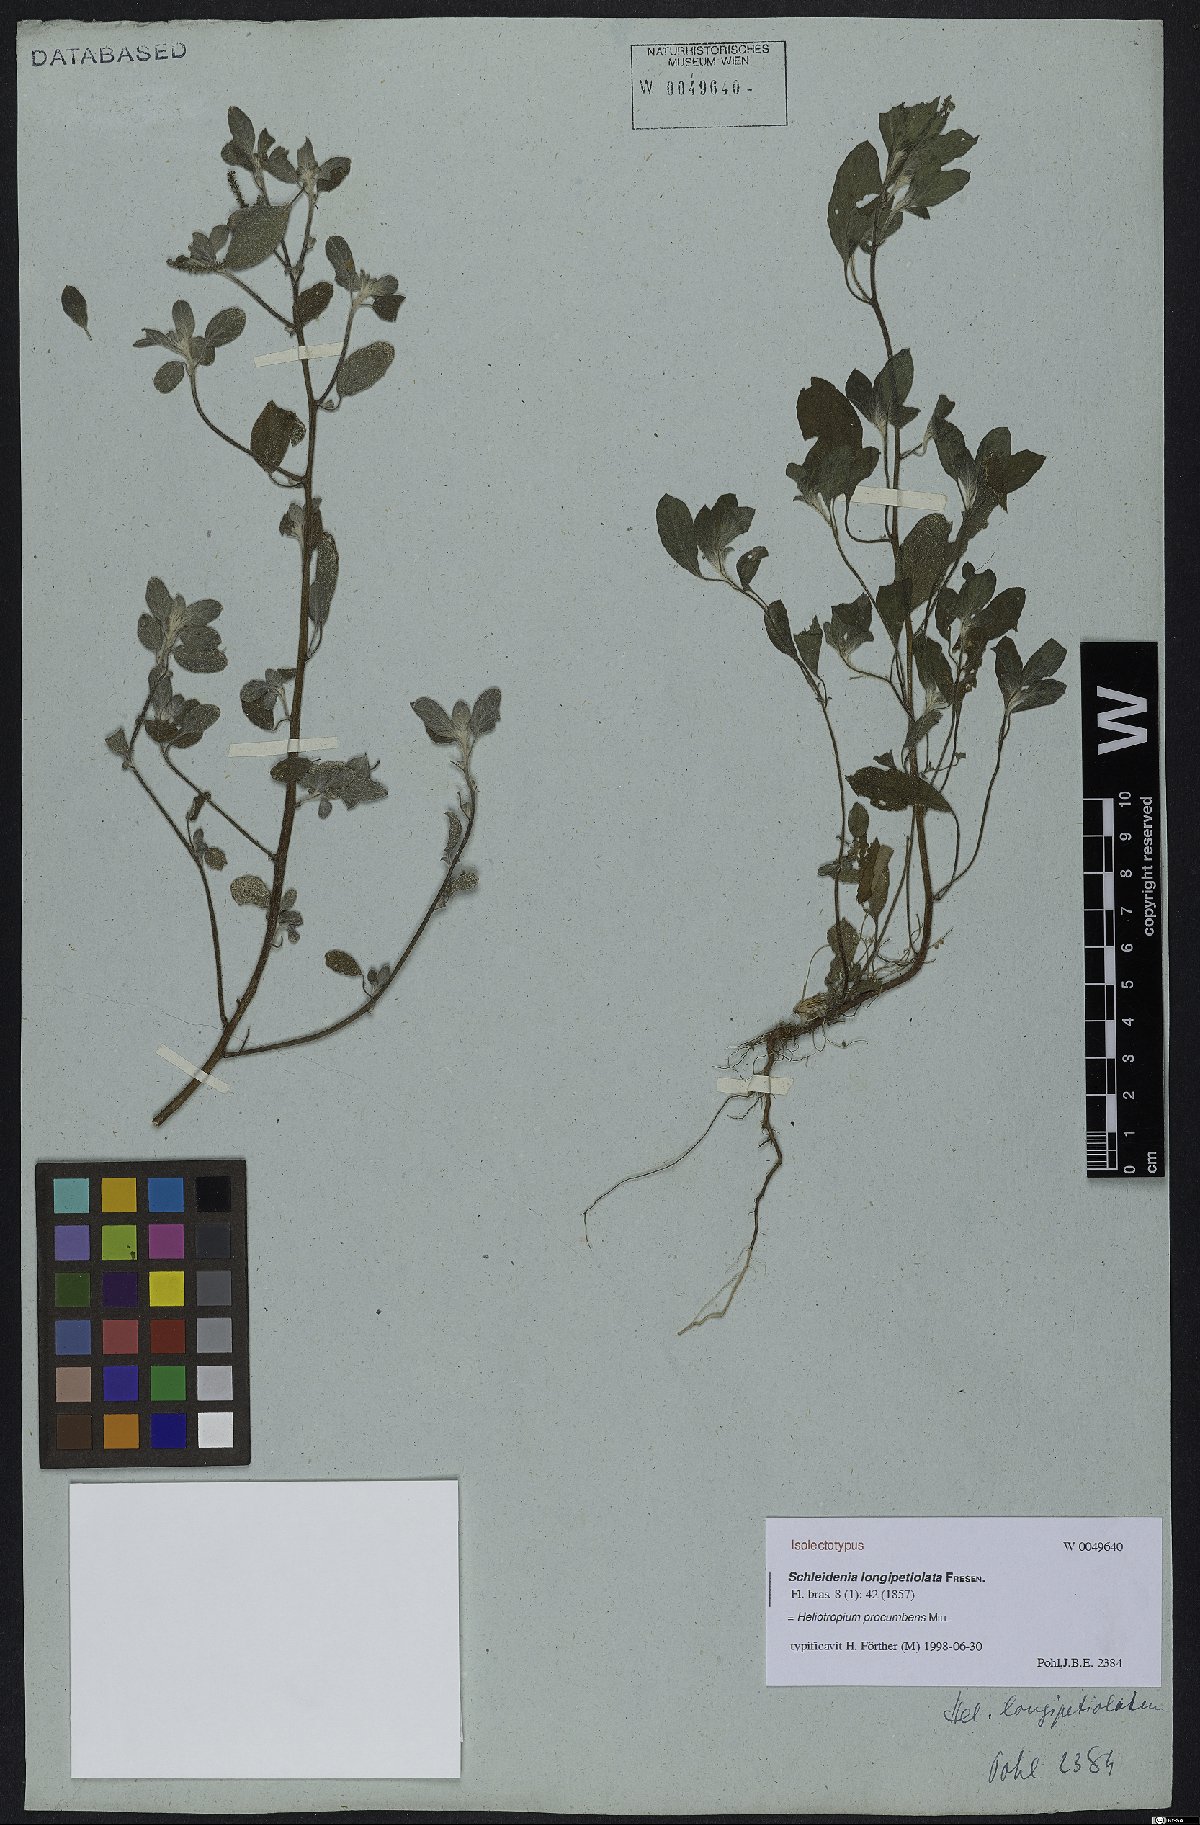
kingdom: Plantae
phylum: Tracheophyta
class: Magnoliopsida
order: Boraginales
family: Heliotropiaceae
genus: Euploca
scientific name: Euploca procumbens
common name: Fourspike heliotrope
